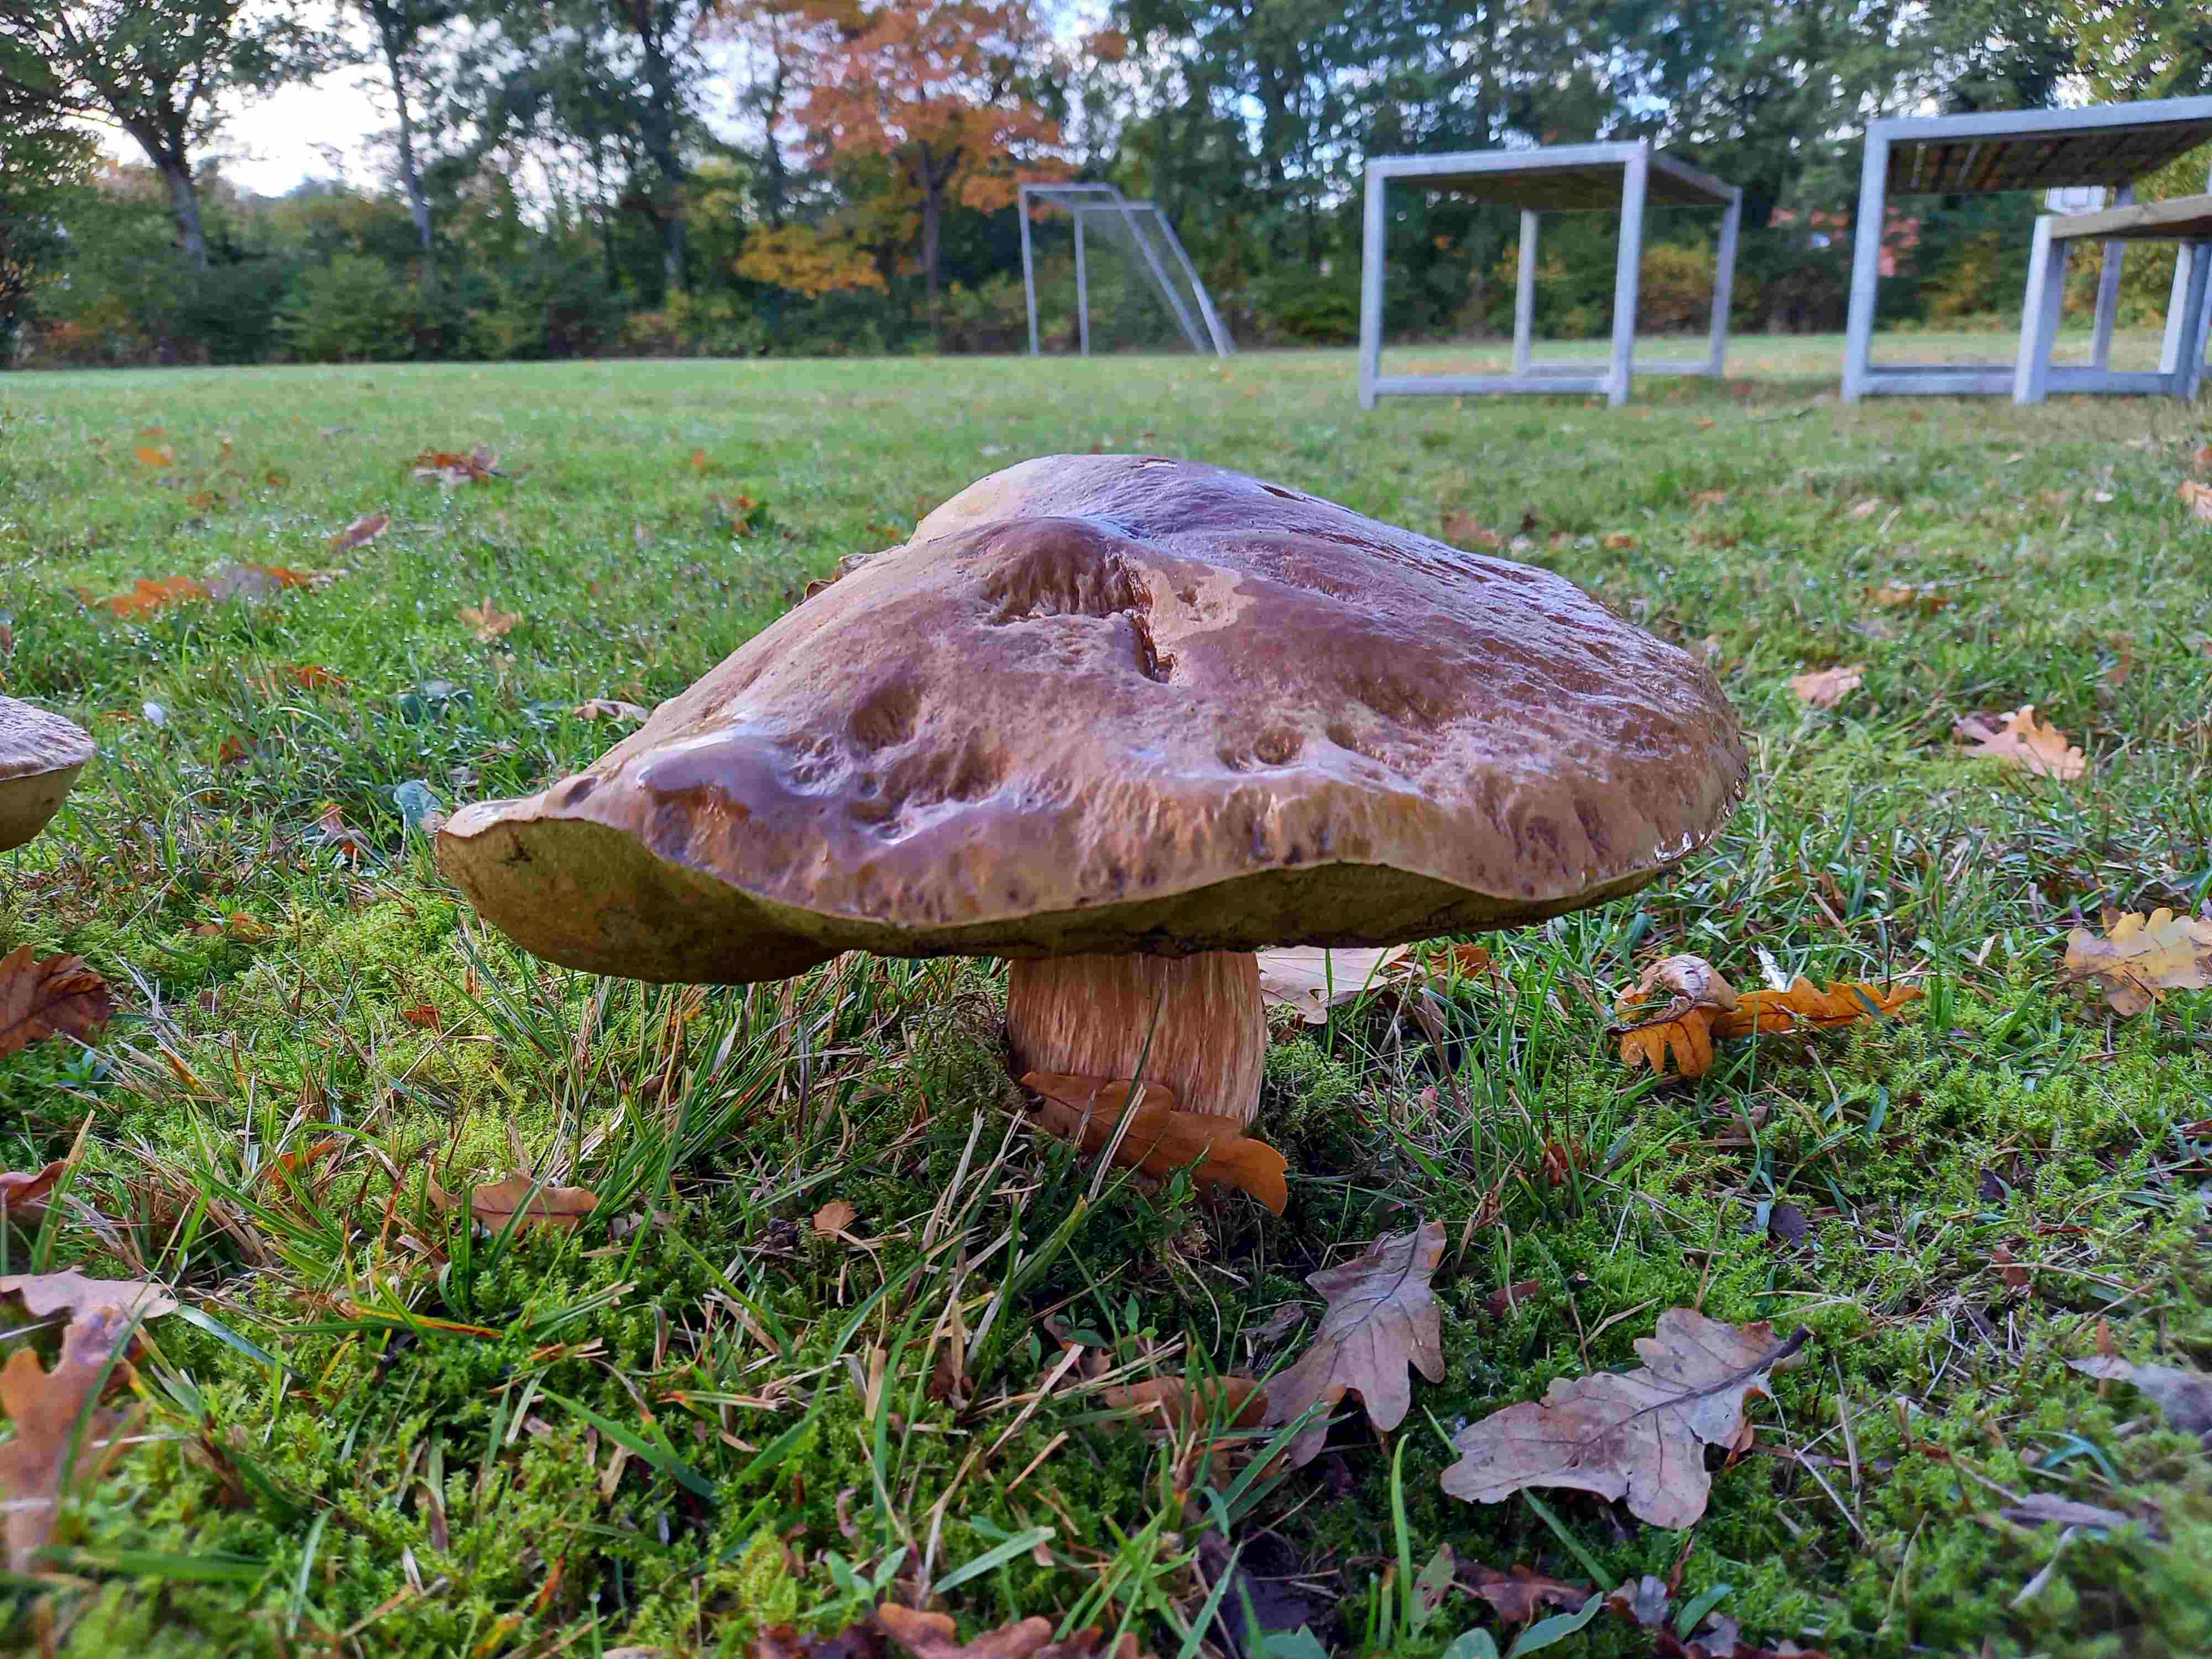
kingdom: Fungi
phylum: Basidiomycota
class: Agaricomycetes
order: Boletales
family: Boletaceae
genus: Boletus
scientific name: Boletus edulis
